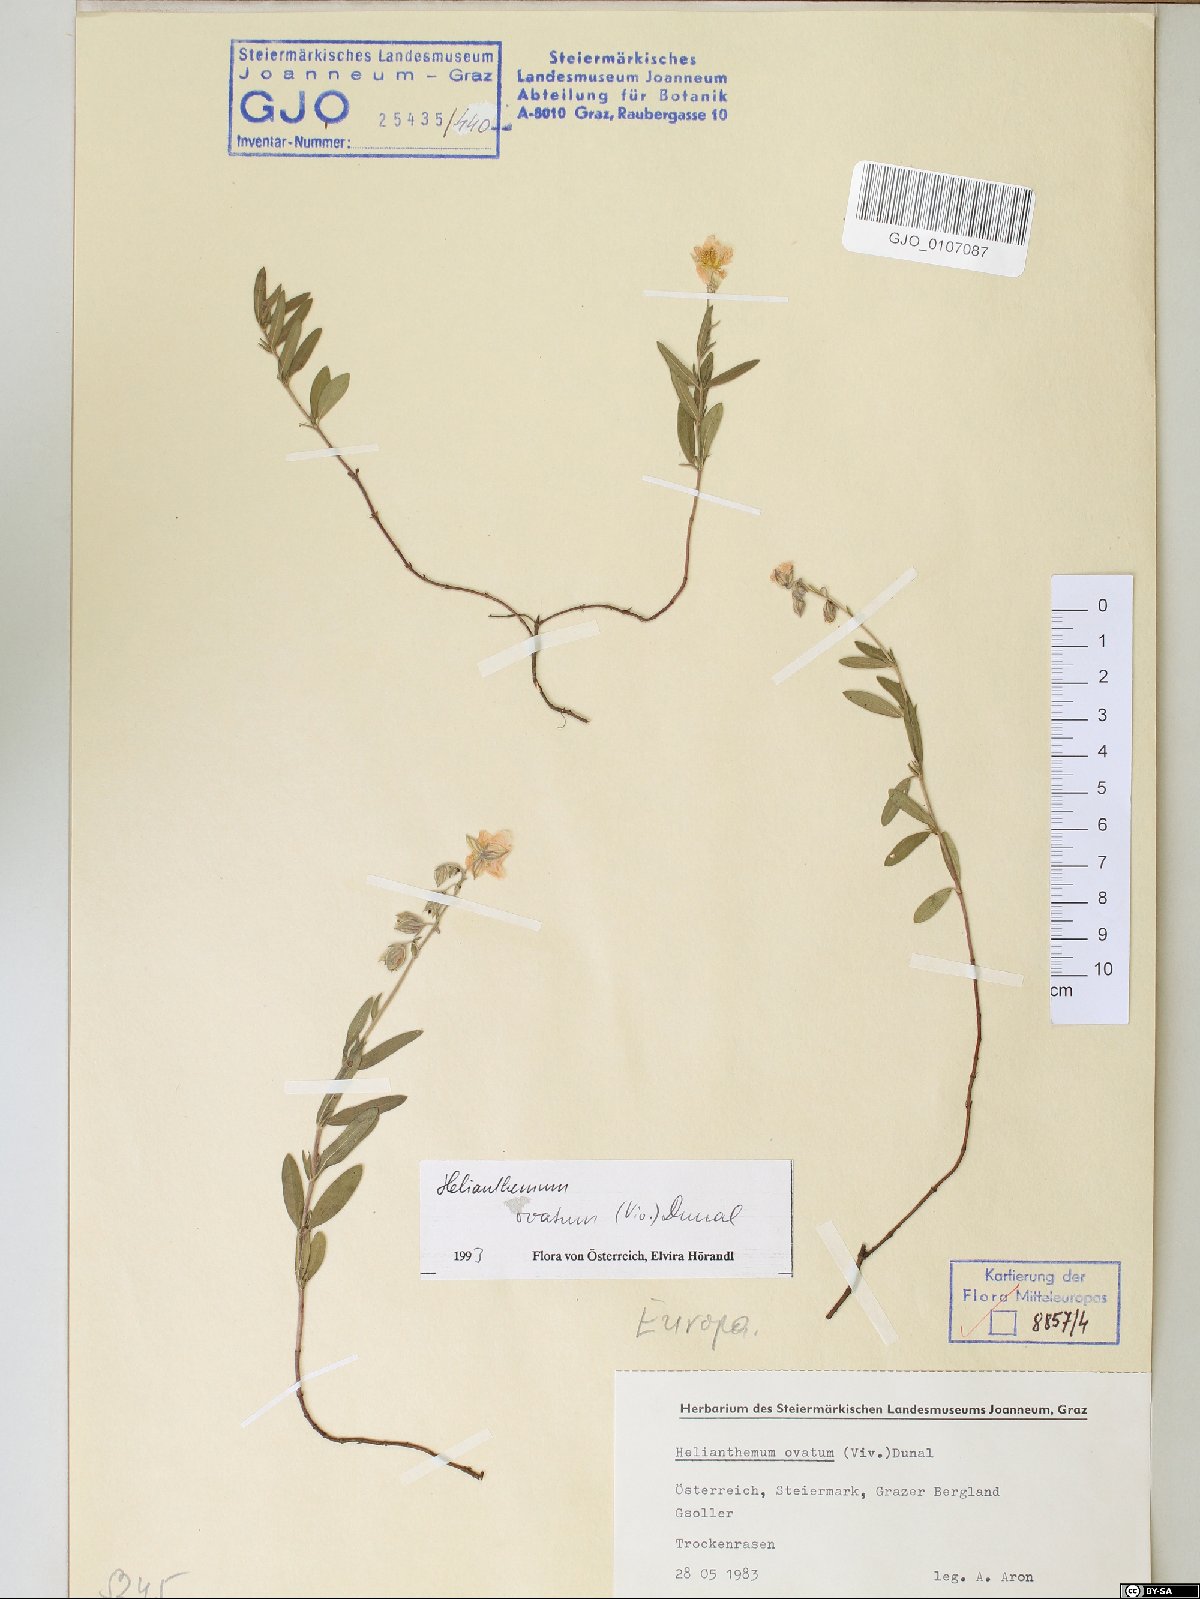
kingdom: Plantae
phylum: Tracheophyta
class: Magnoliopsida
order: Malvales
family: Cistaceae
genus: Helianthemum
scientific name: Helianthemum nummularium
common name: Common rock-rose
